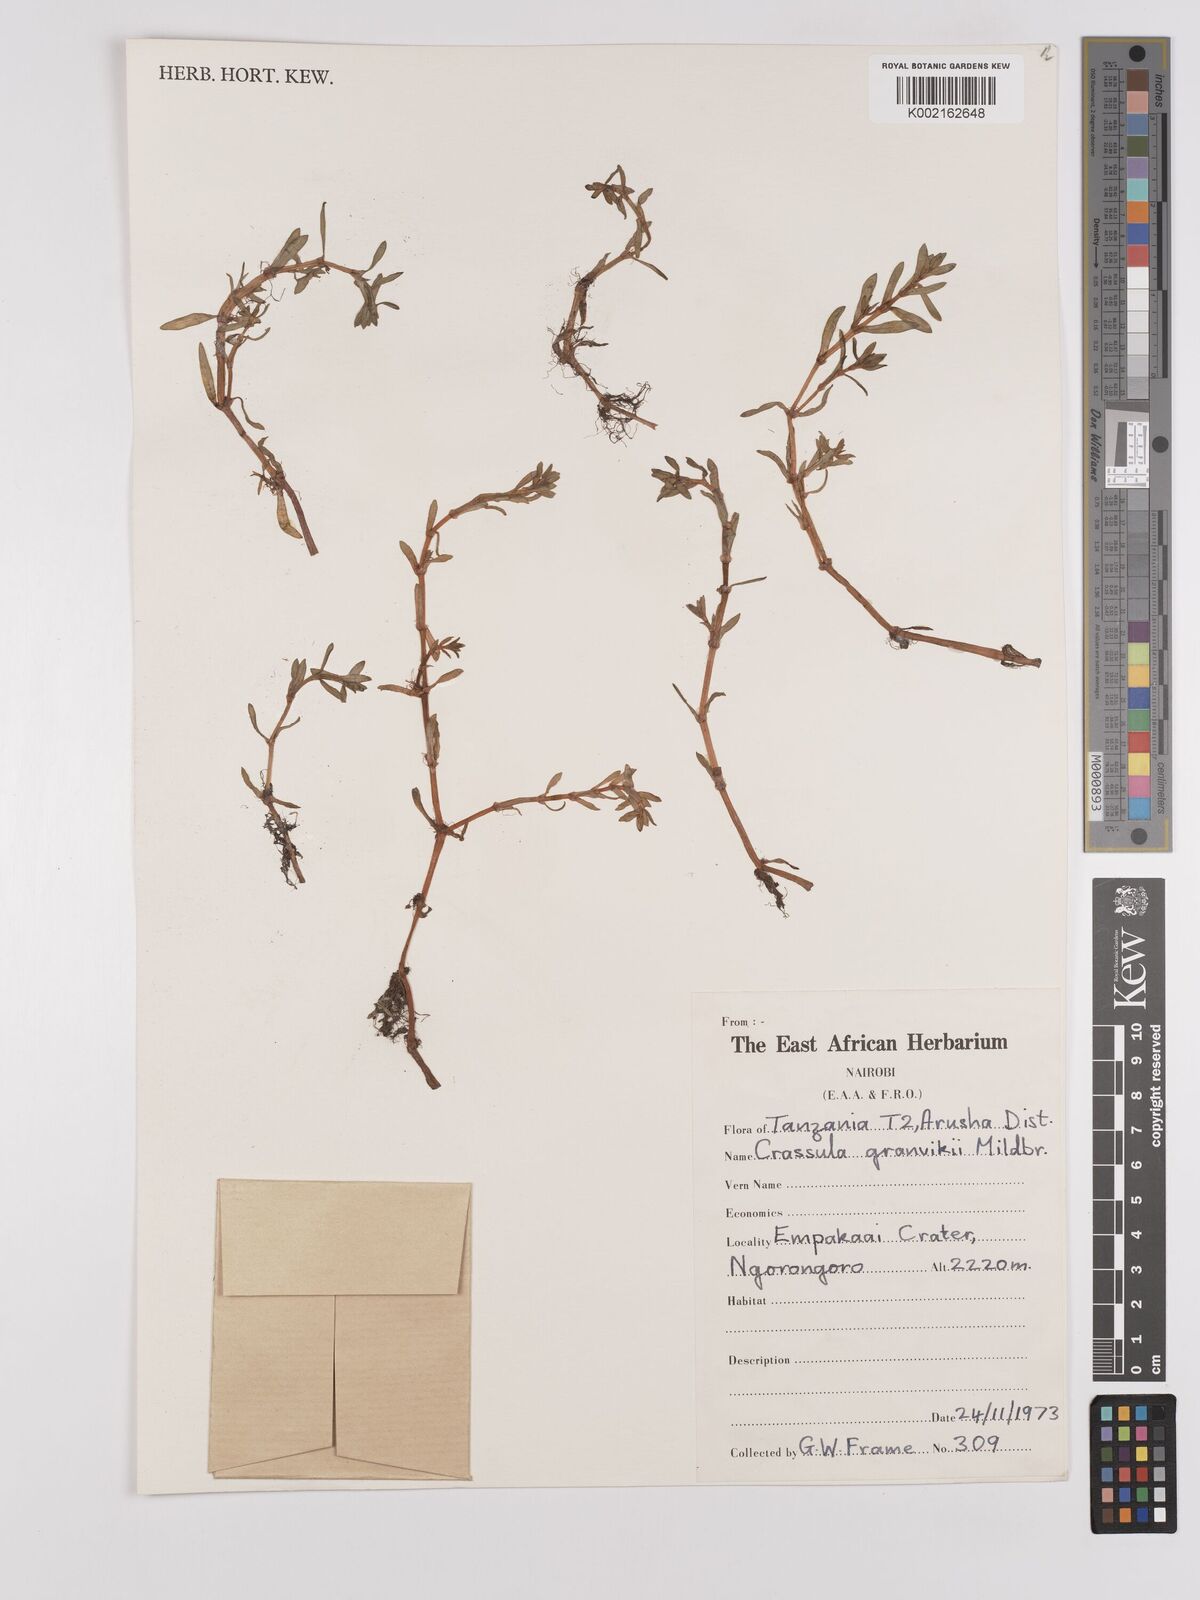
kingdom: Plantae
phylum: Tracheophyta
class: Magnoliopsida
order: Saxifragales
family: Crassulaceae
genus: Crassula
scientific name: Crassula granvikii
